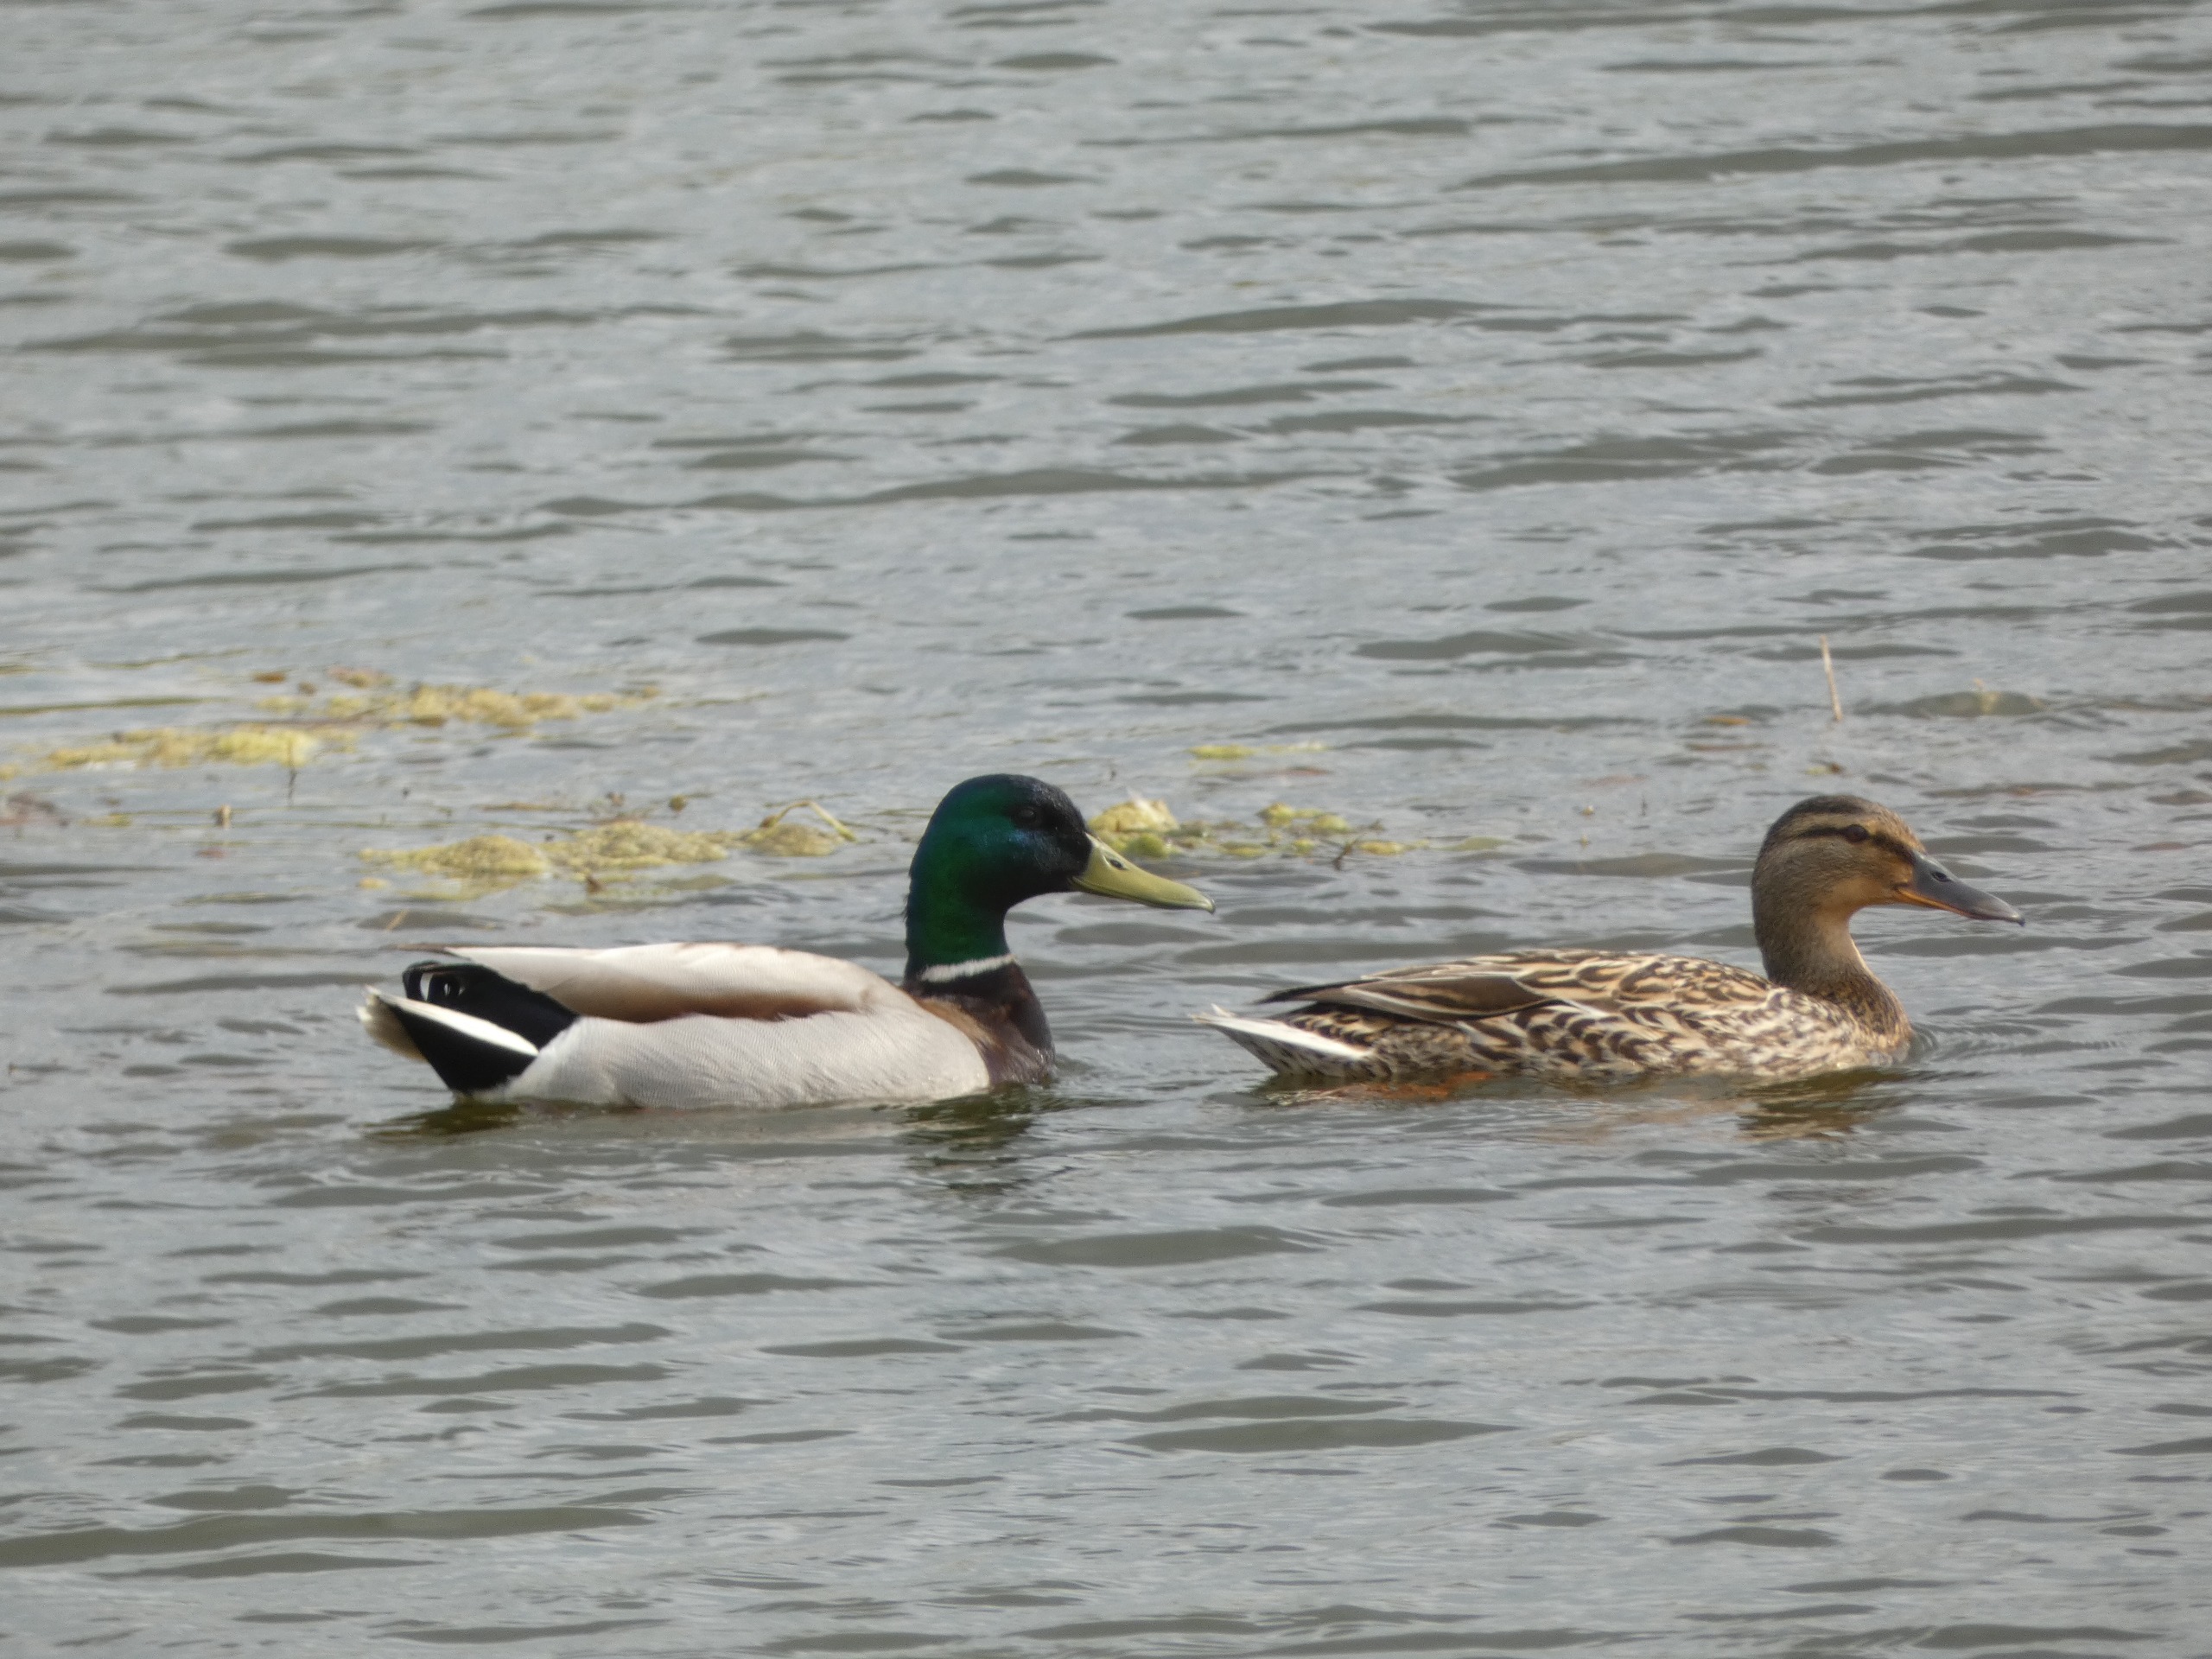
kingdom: Animalia
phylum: Chordata
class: Aves
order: Anseriformes
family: Anatidae
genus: Anas
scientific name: Anas platyrhynchos
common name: Gråand
